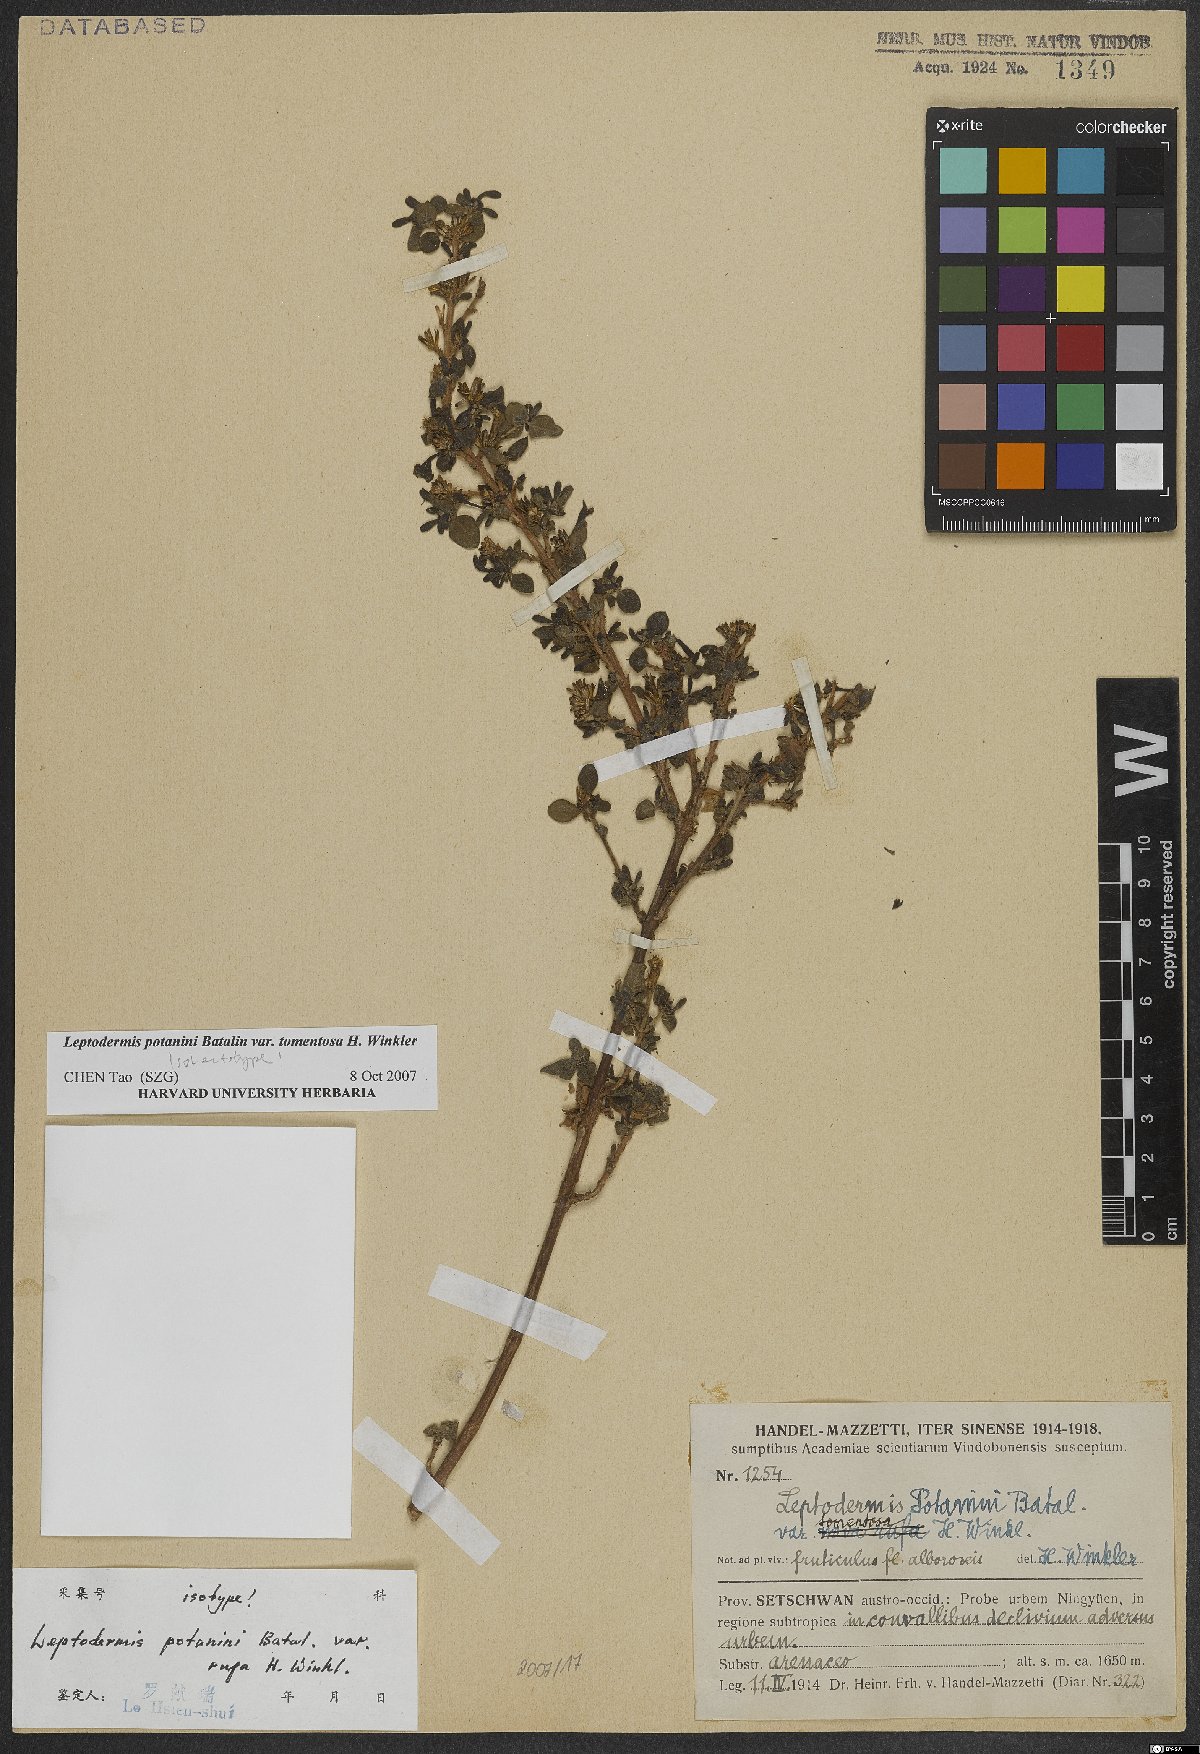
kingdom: Plantae
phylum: Tracheophyta
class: Magnoliopsida
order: Gentianales
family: Rubiaceae
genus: Leptodermis
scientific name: Leptodermis potaninii
